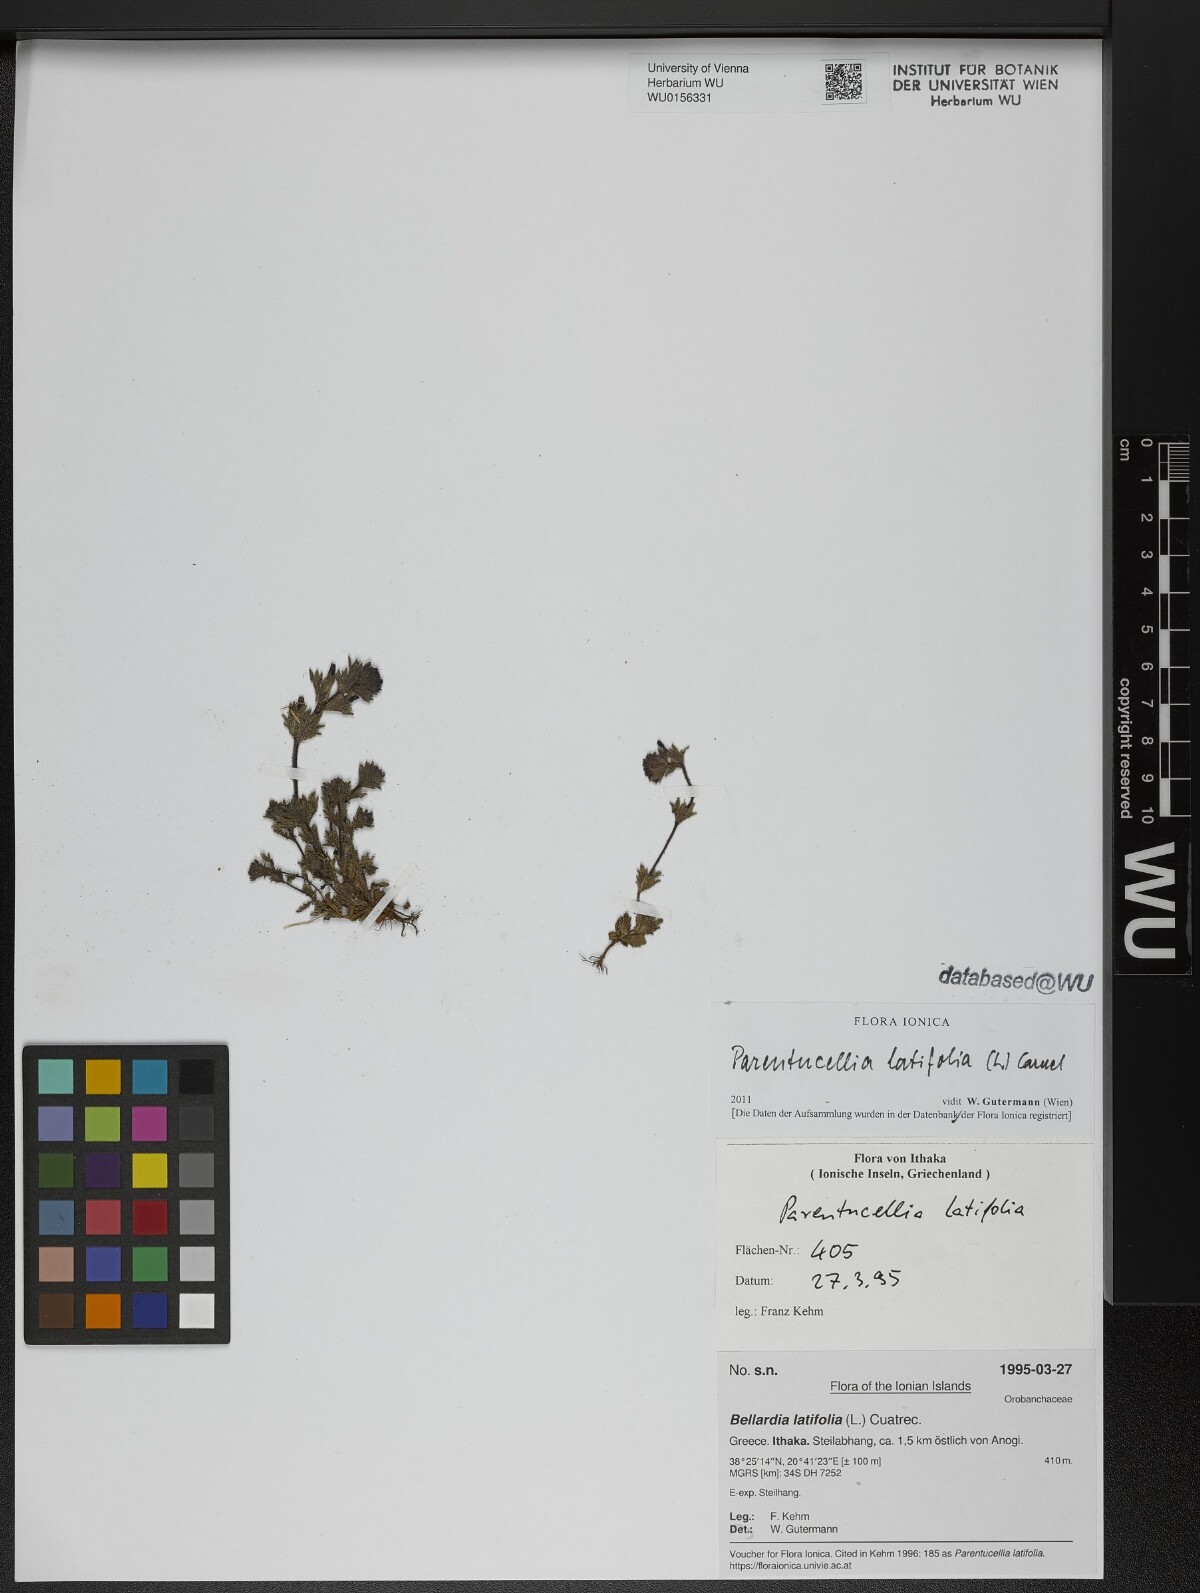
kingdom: Plantae
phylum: Tracheophyta
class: Magnoliopsida
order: Lamiales
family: Orobanchaceae
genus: Parentucellia
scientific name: Parentucellia latifolia
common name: Broadleaf glandweed
